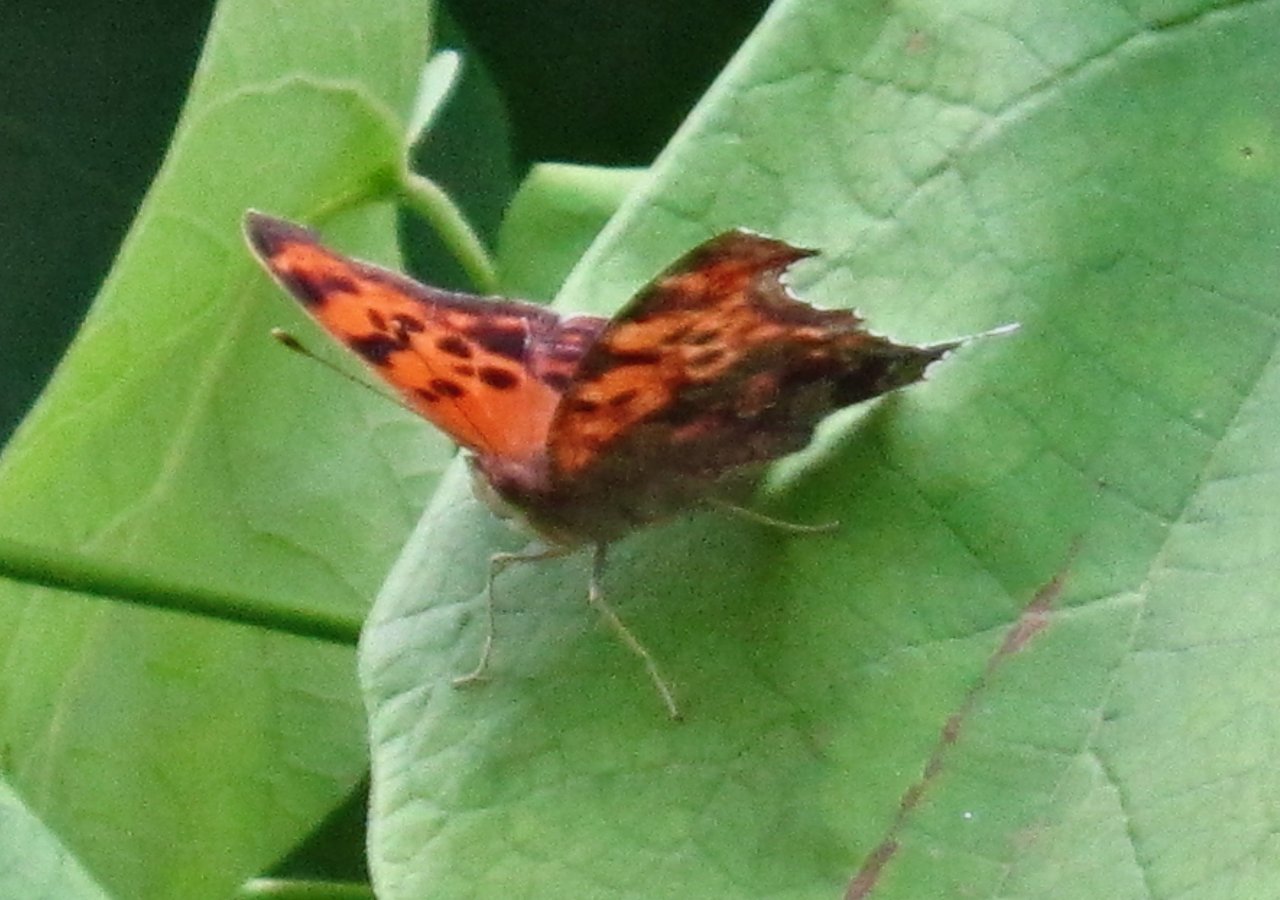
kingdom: Animalia
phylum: Arthropoda
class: Insecta
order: Lepidoptera
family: Nymphalidae
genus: Polygonia
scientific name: Polygonia interrogationis
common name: Question Mark
